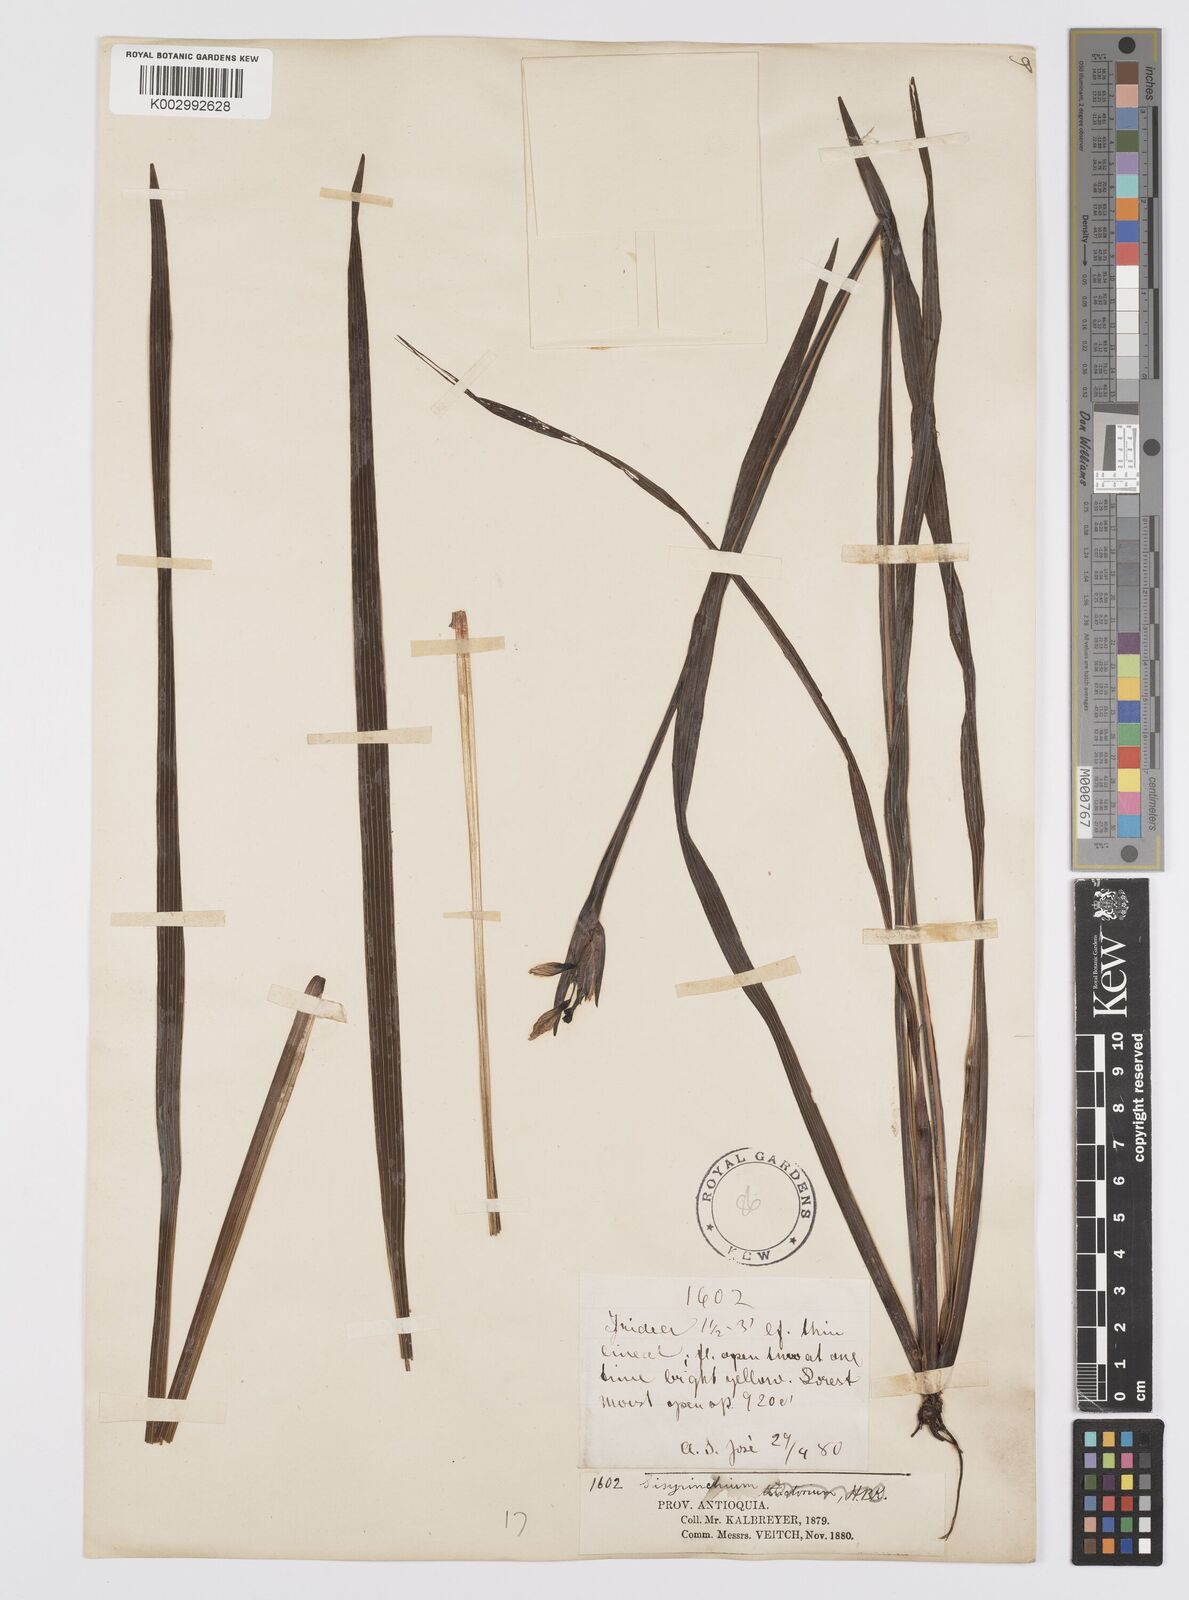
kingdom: Plantae
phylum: Tracheophyta
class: Liliopsida
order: Asparagales
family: Iridaceae
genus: Sisyrinchium
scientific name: Sisyrinchium
